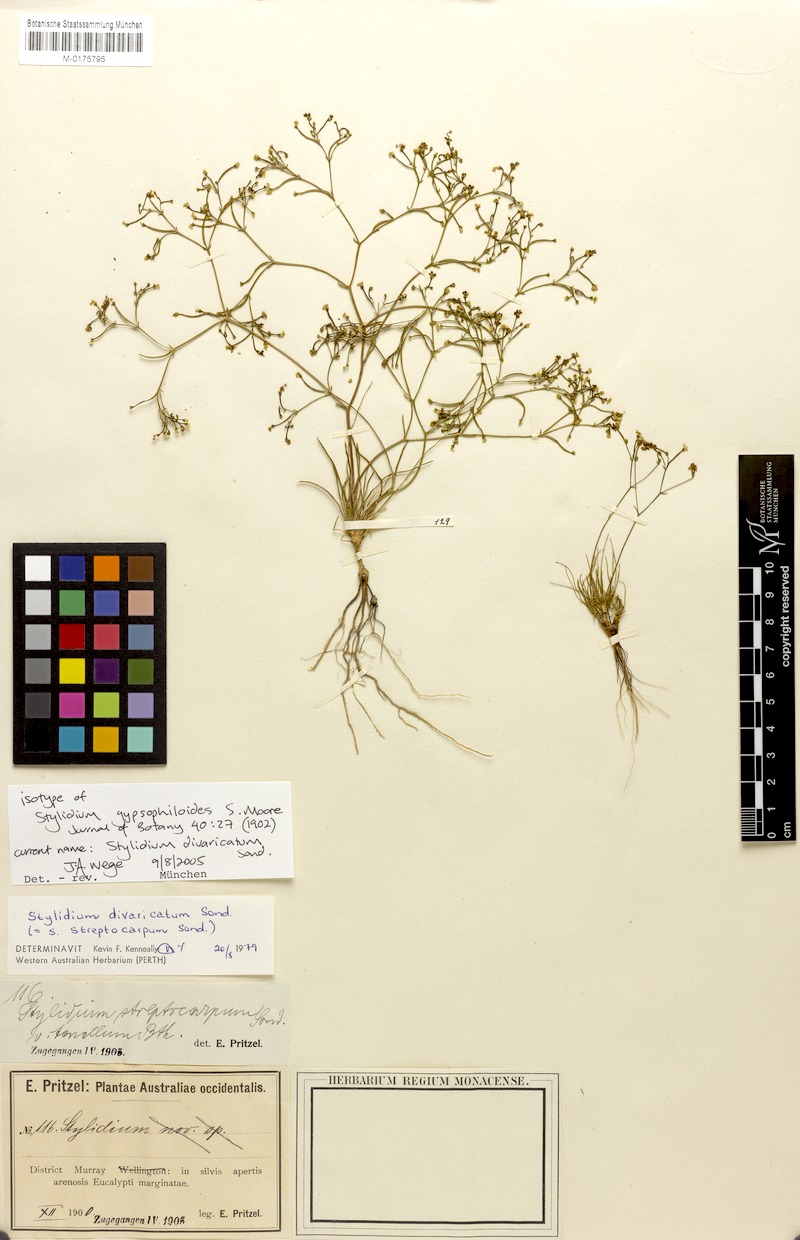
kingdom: Plantae
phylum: Tracheophyta
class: Magnoliopsida
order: Asterales
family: Stylidiaceae
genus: Stylidium
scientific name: Stylidium divaricatum
